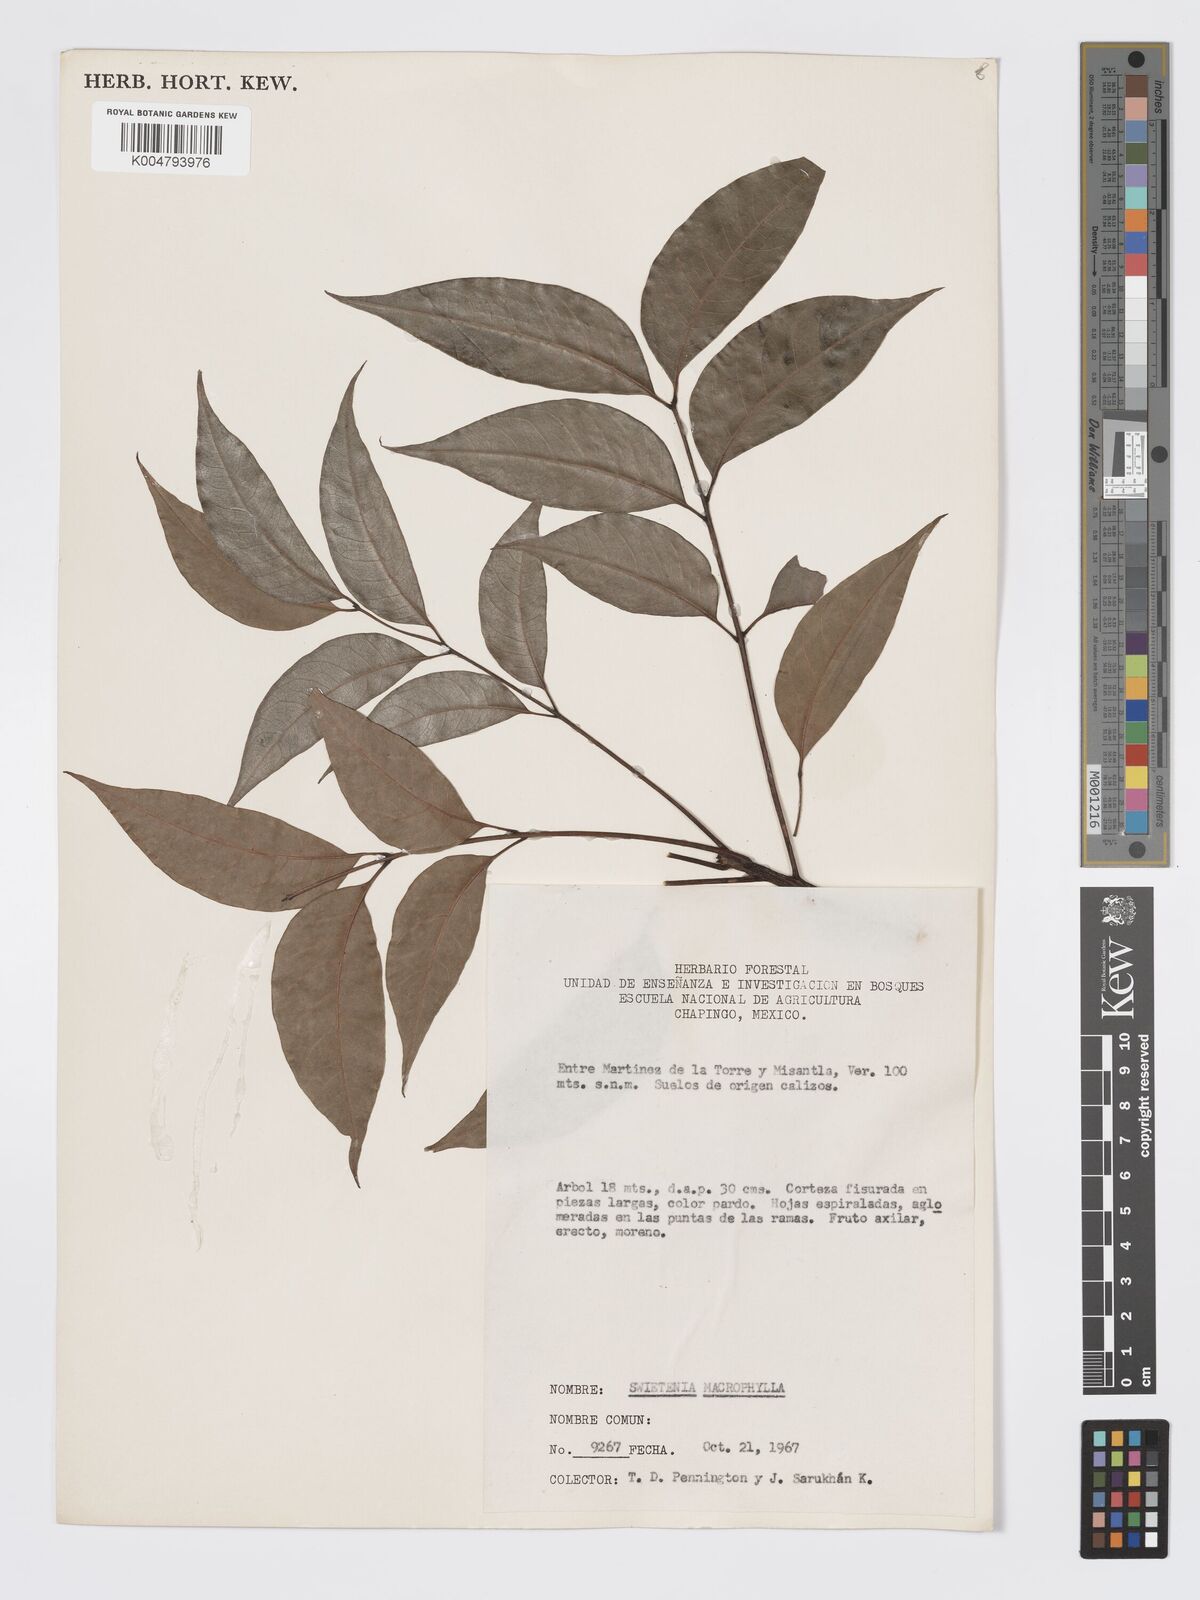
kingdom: Plantae
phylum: Tracheophyta
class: Magnoliopsida
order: Sapindales
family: Meliaceae
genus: Swietenia
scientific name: Swietenia macrophylla
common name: Honduras mahogany
